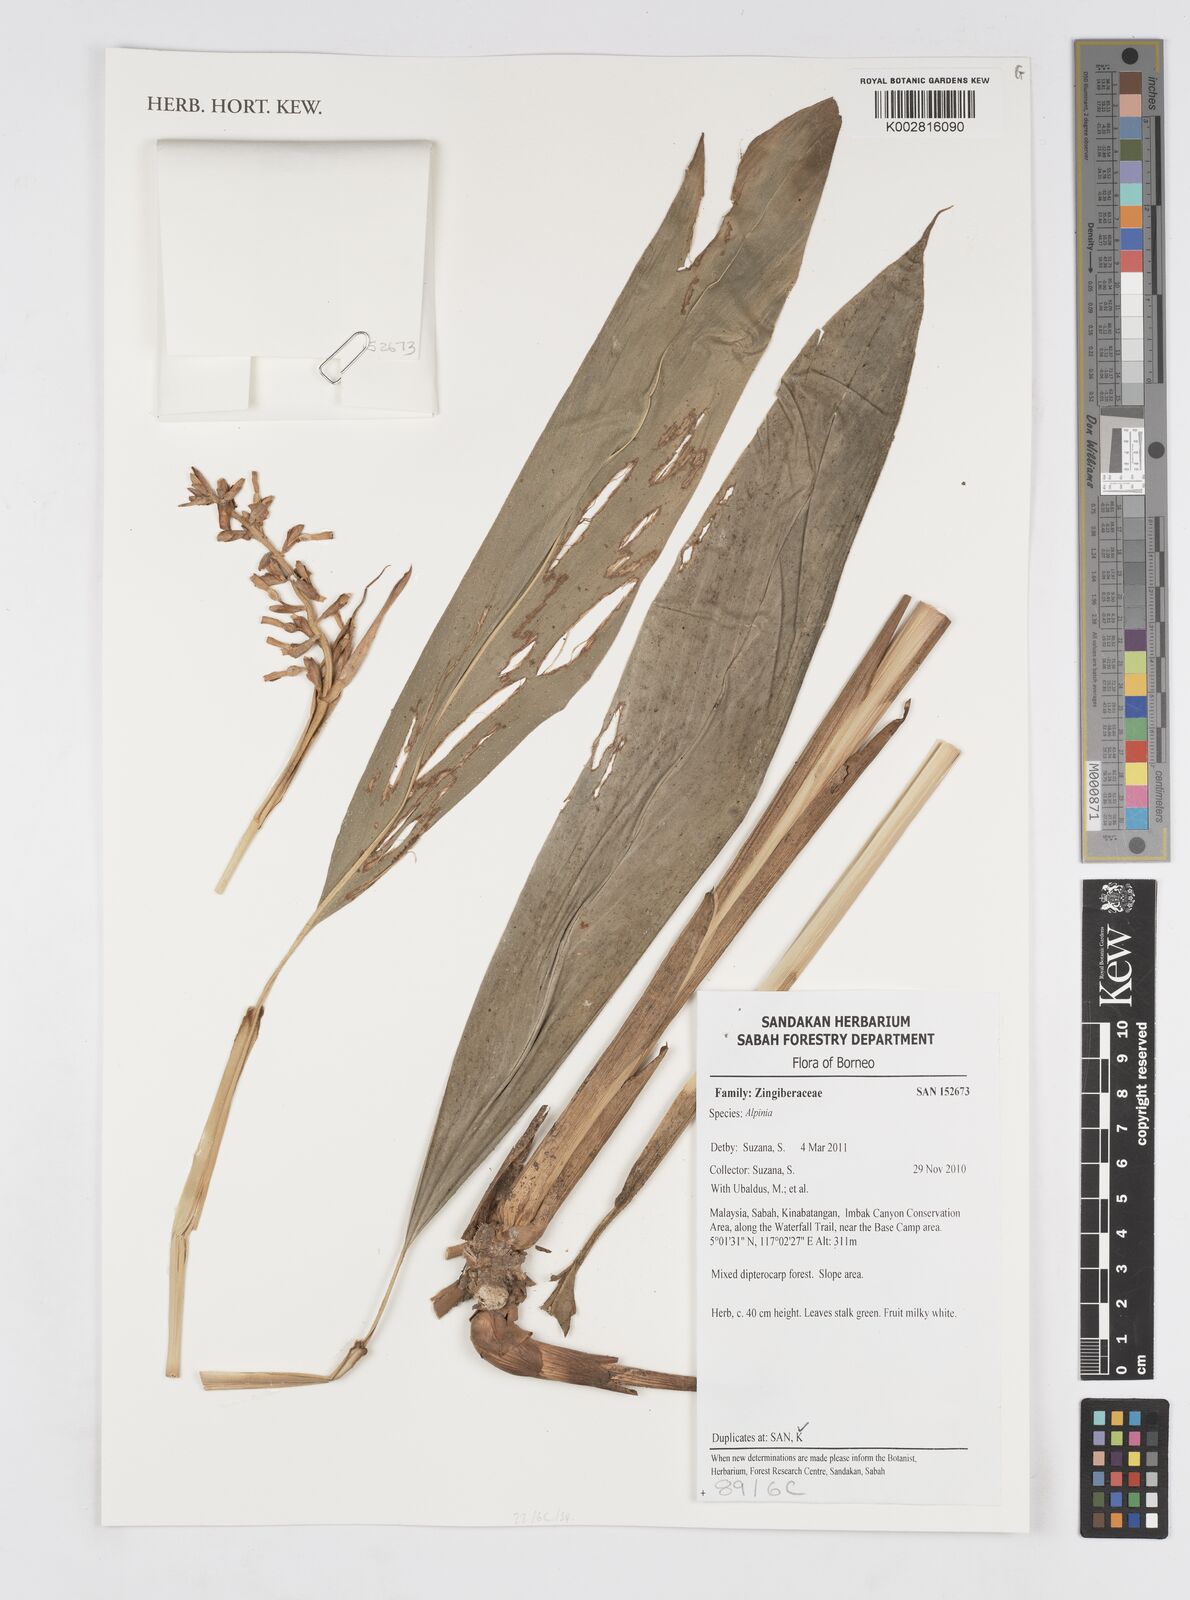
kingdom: Plantae
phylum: Tracheophyta
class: Liliopsida
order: Zingiberales
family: Zingiberaceae
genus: Alpinia
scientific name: Alpinia
